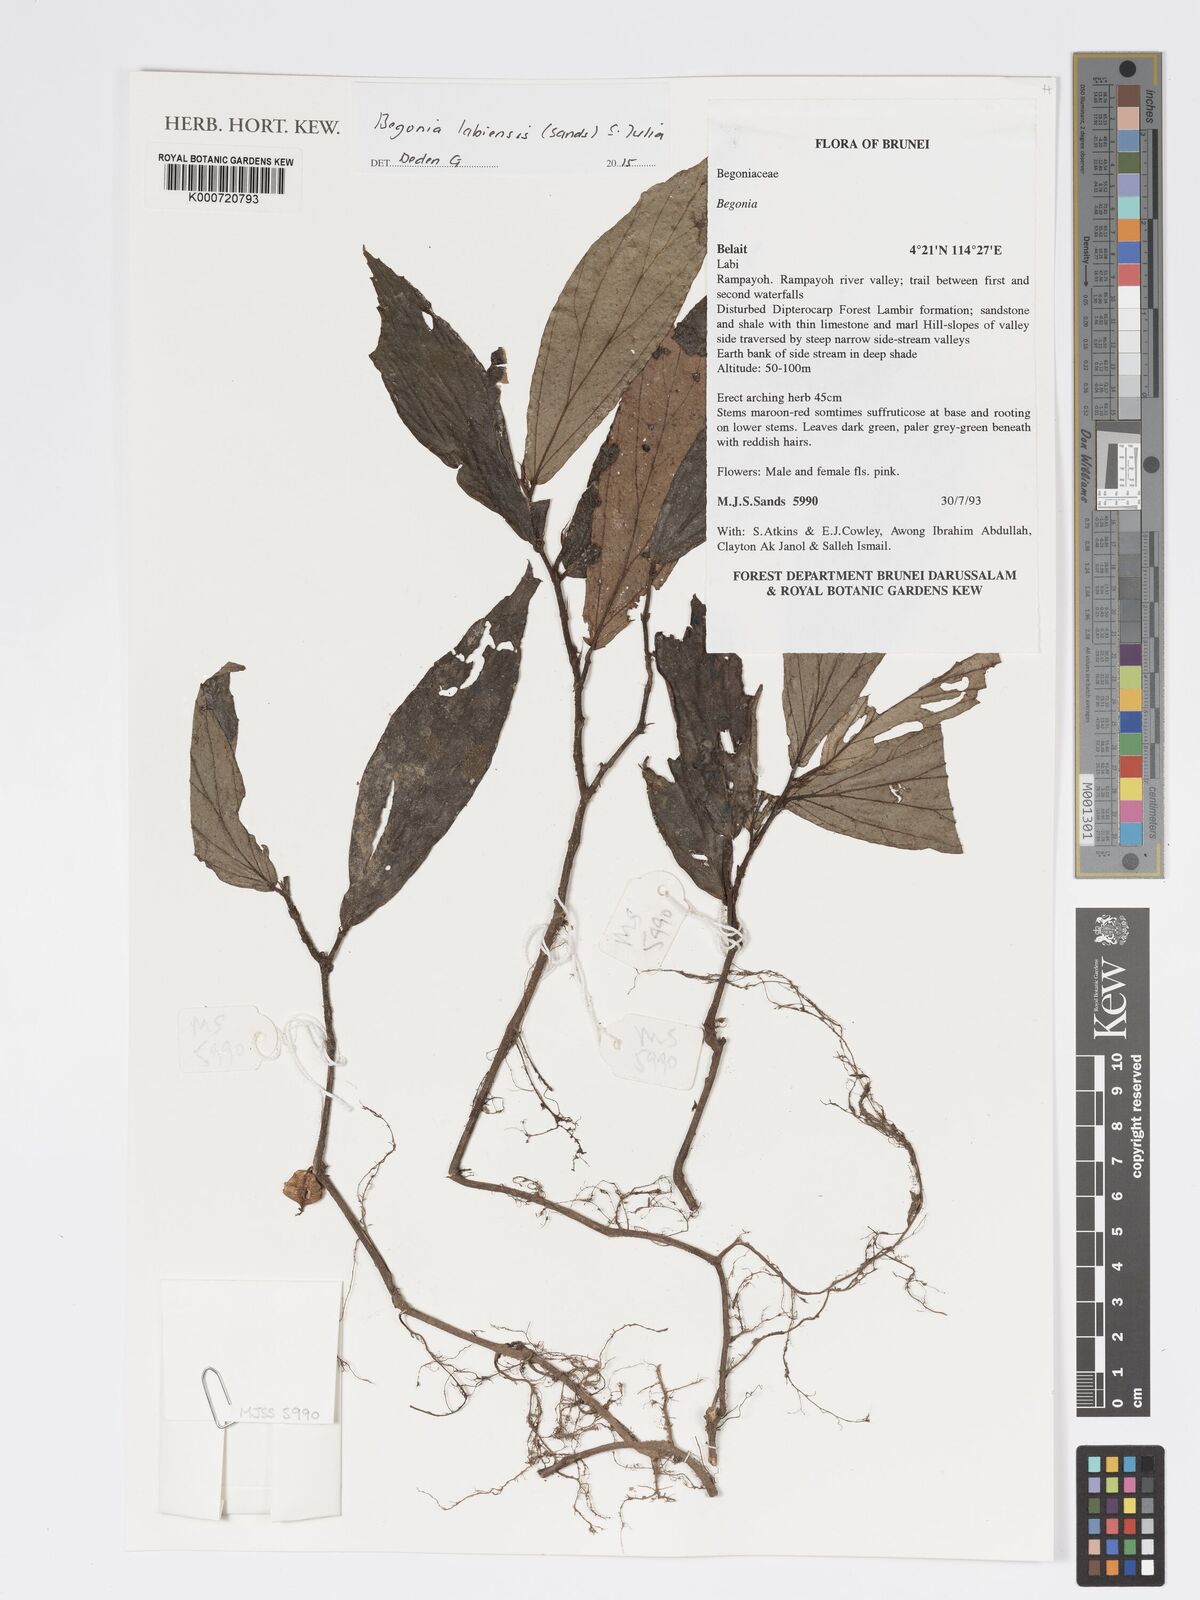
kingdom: Plantae
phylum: Tracheophyta
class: Magnoliopsida
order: Cucurbitales
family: Begoniaceae
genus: Begonia
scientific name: Begonia labiensis
